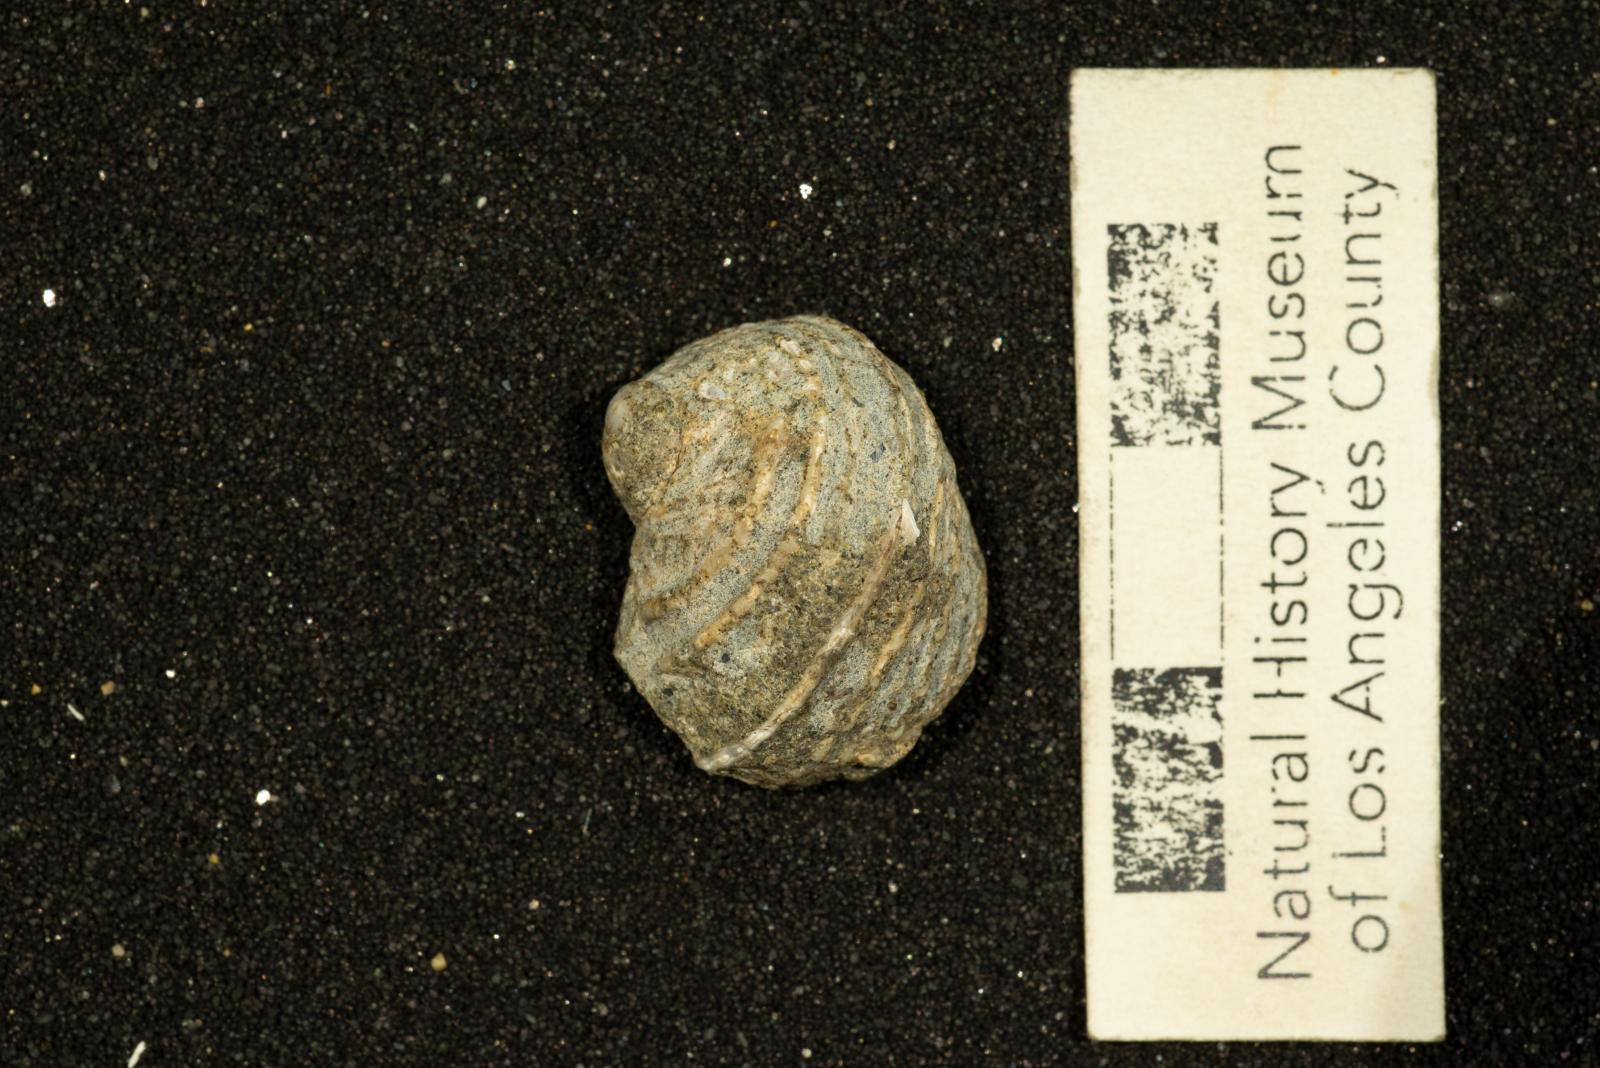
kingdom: Animalia
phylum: Mollusca
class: Gastropoda
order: Littorinimorpha
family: Calyptraeidae
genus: Lysis
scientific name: Lysis duplicosta
